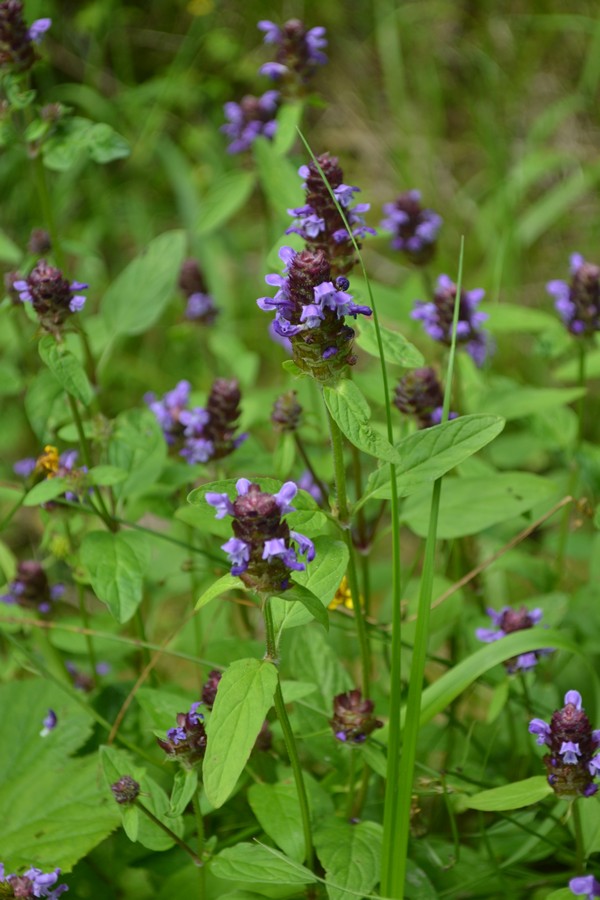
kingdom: Plantae
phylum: Tracheophyta
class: Magnoliopsida
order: Lamiales
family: Lamiaceae
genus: Prunella
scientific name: Prunella vulgaris
